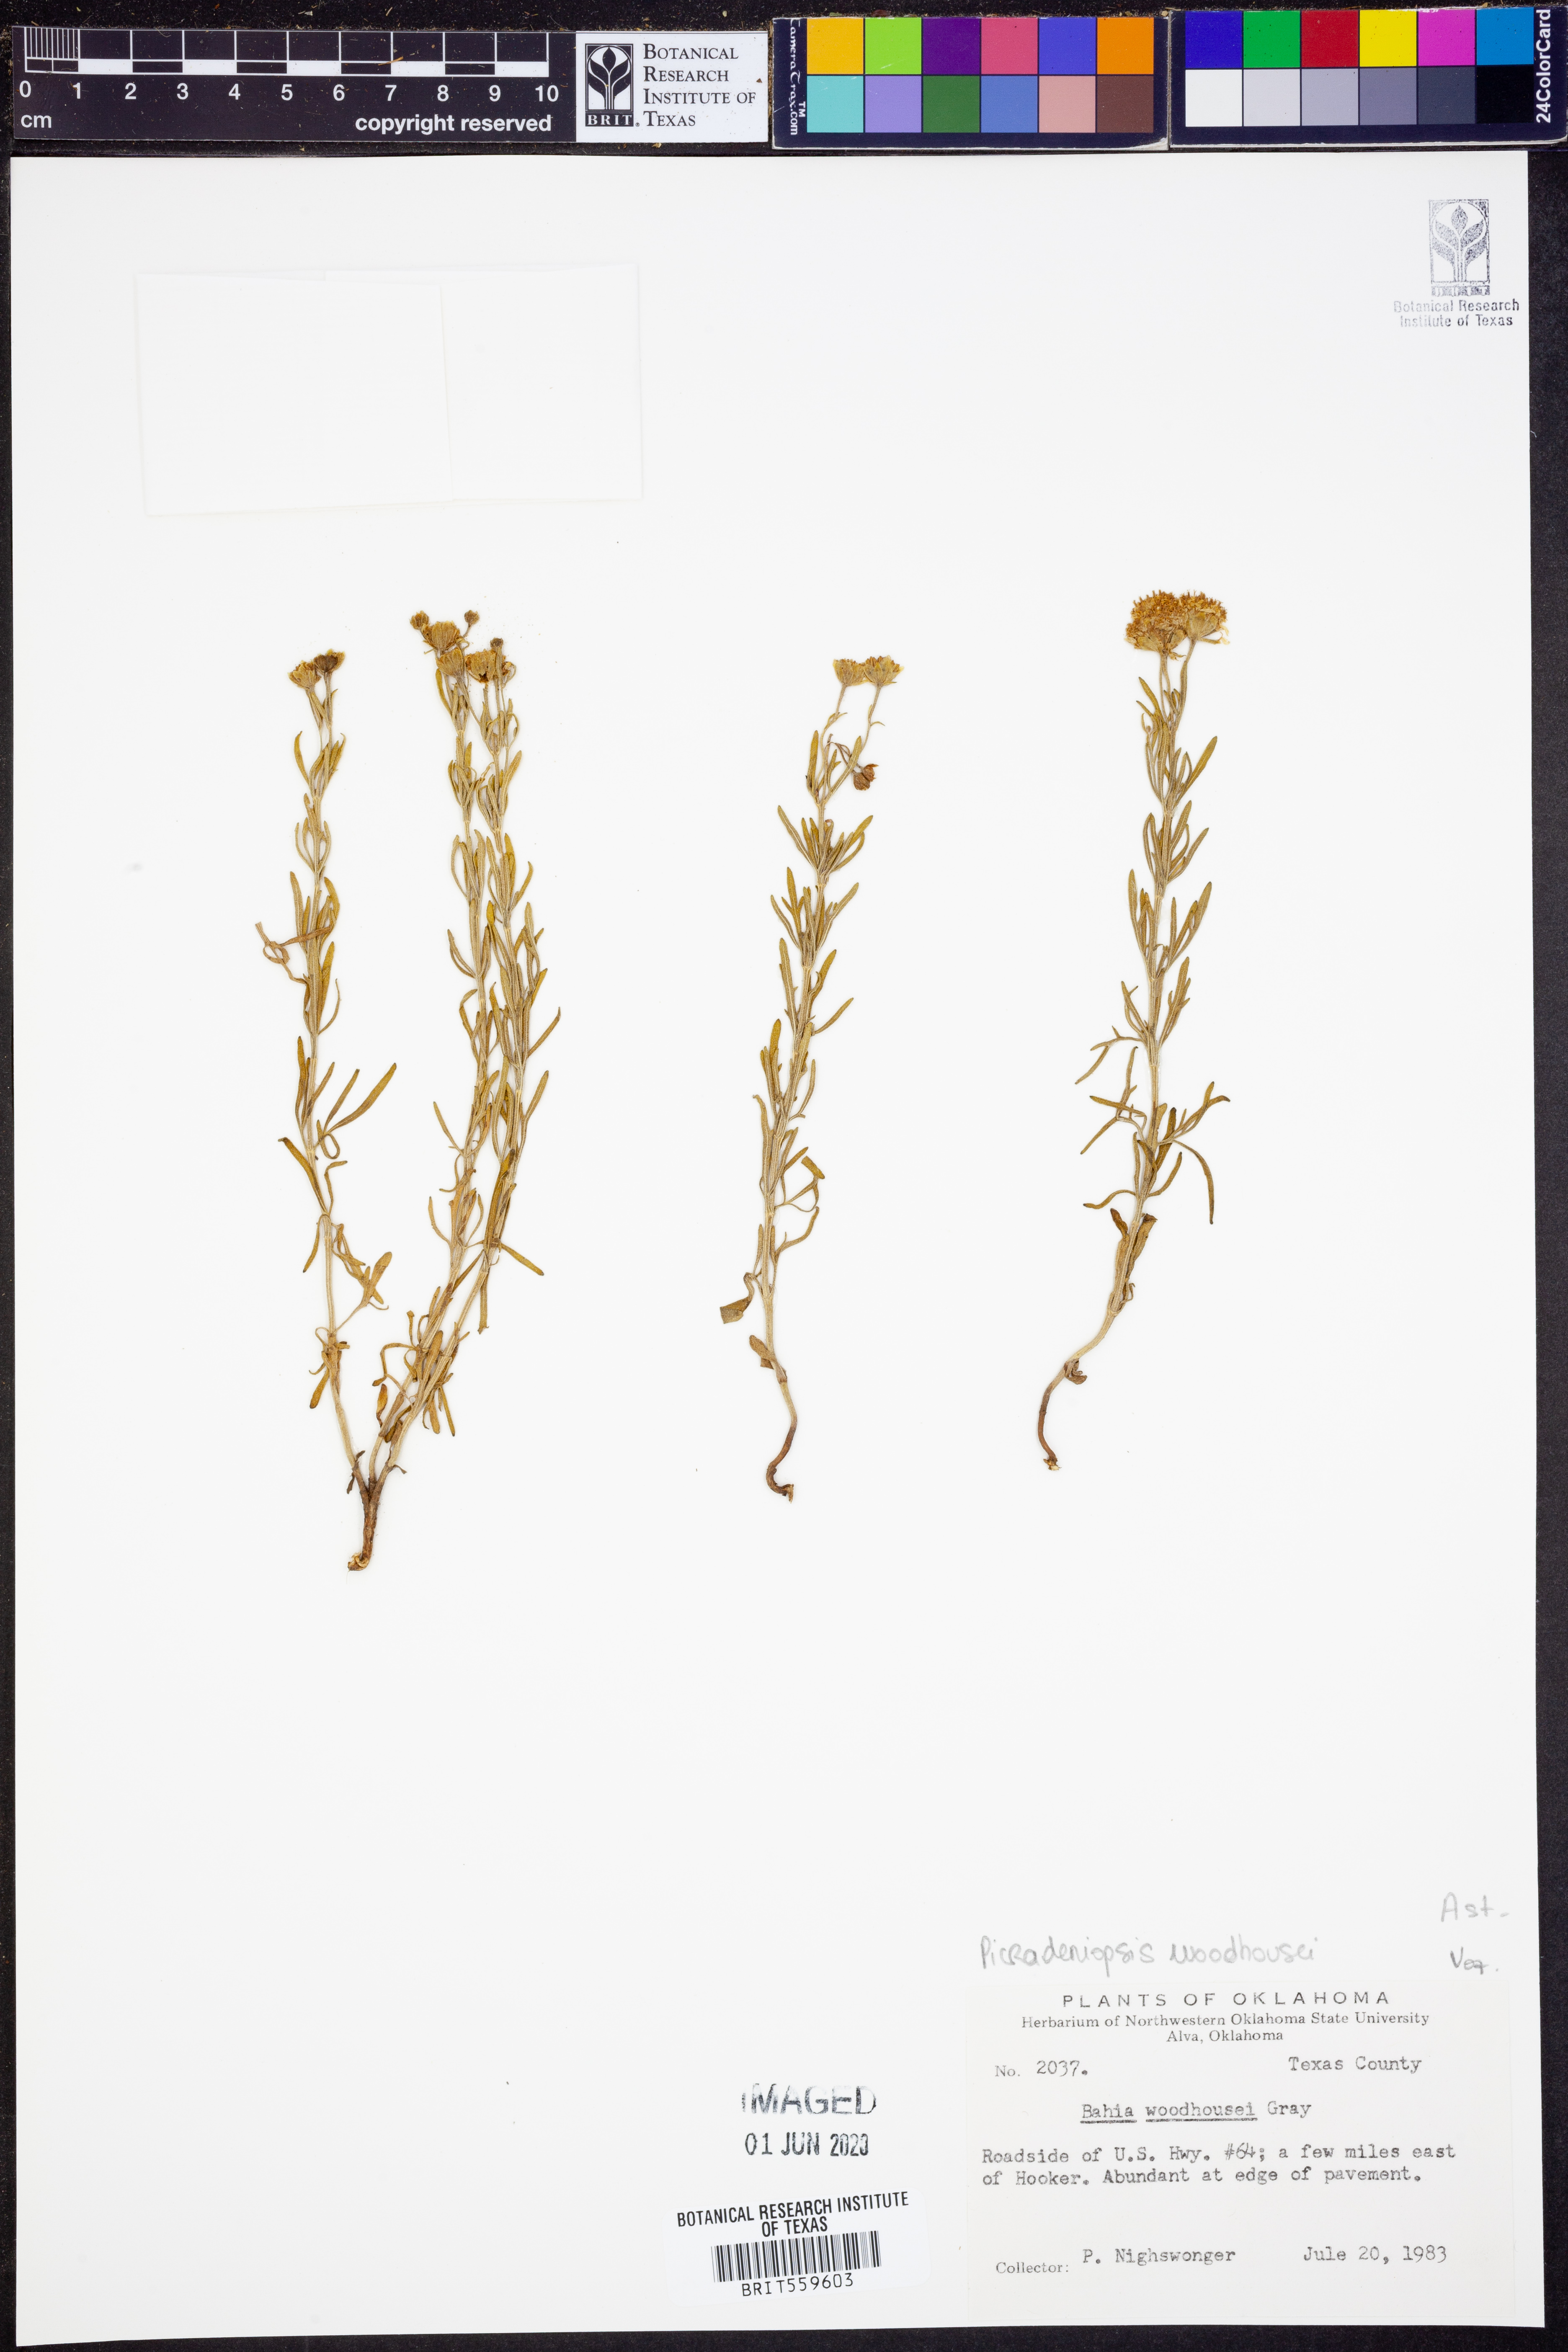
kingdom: Plantae
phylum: Tracheophyta
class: Magnoliopsida
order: Asterales
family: Asteraceae
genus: Picradeniopsis
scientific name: Picradeniopsis woodhousei
